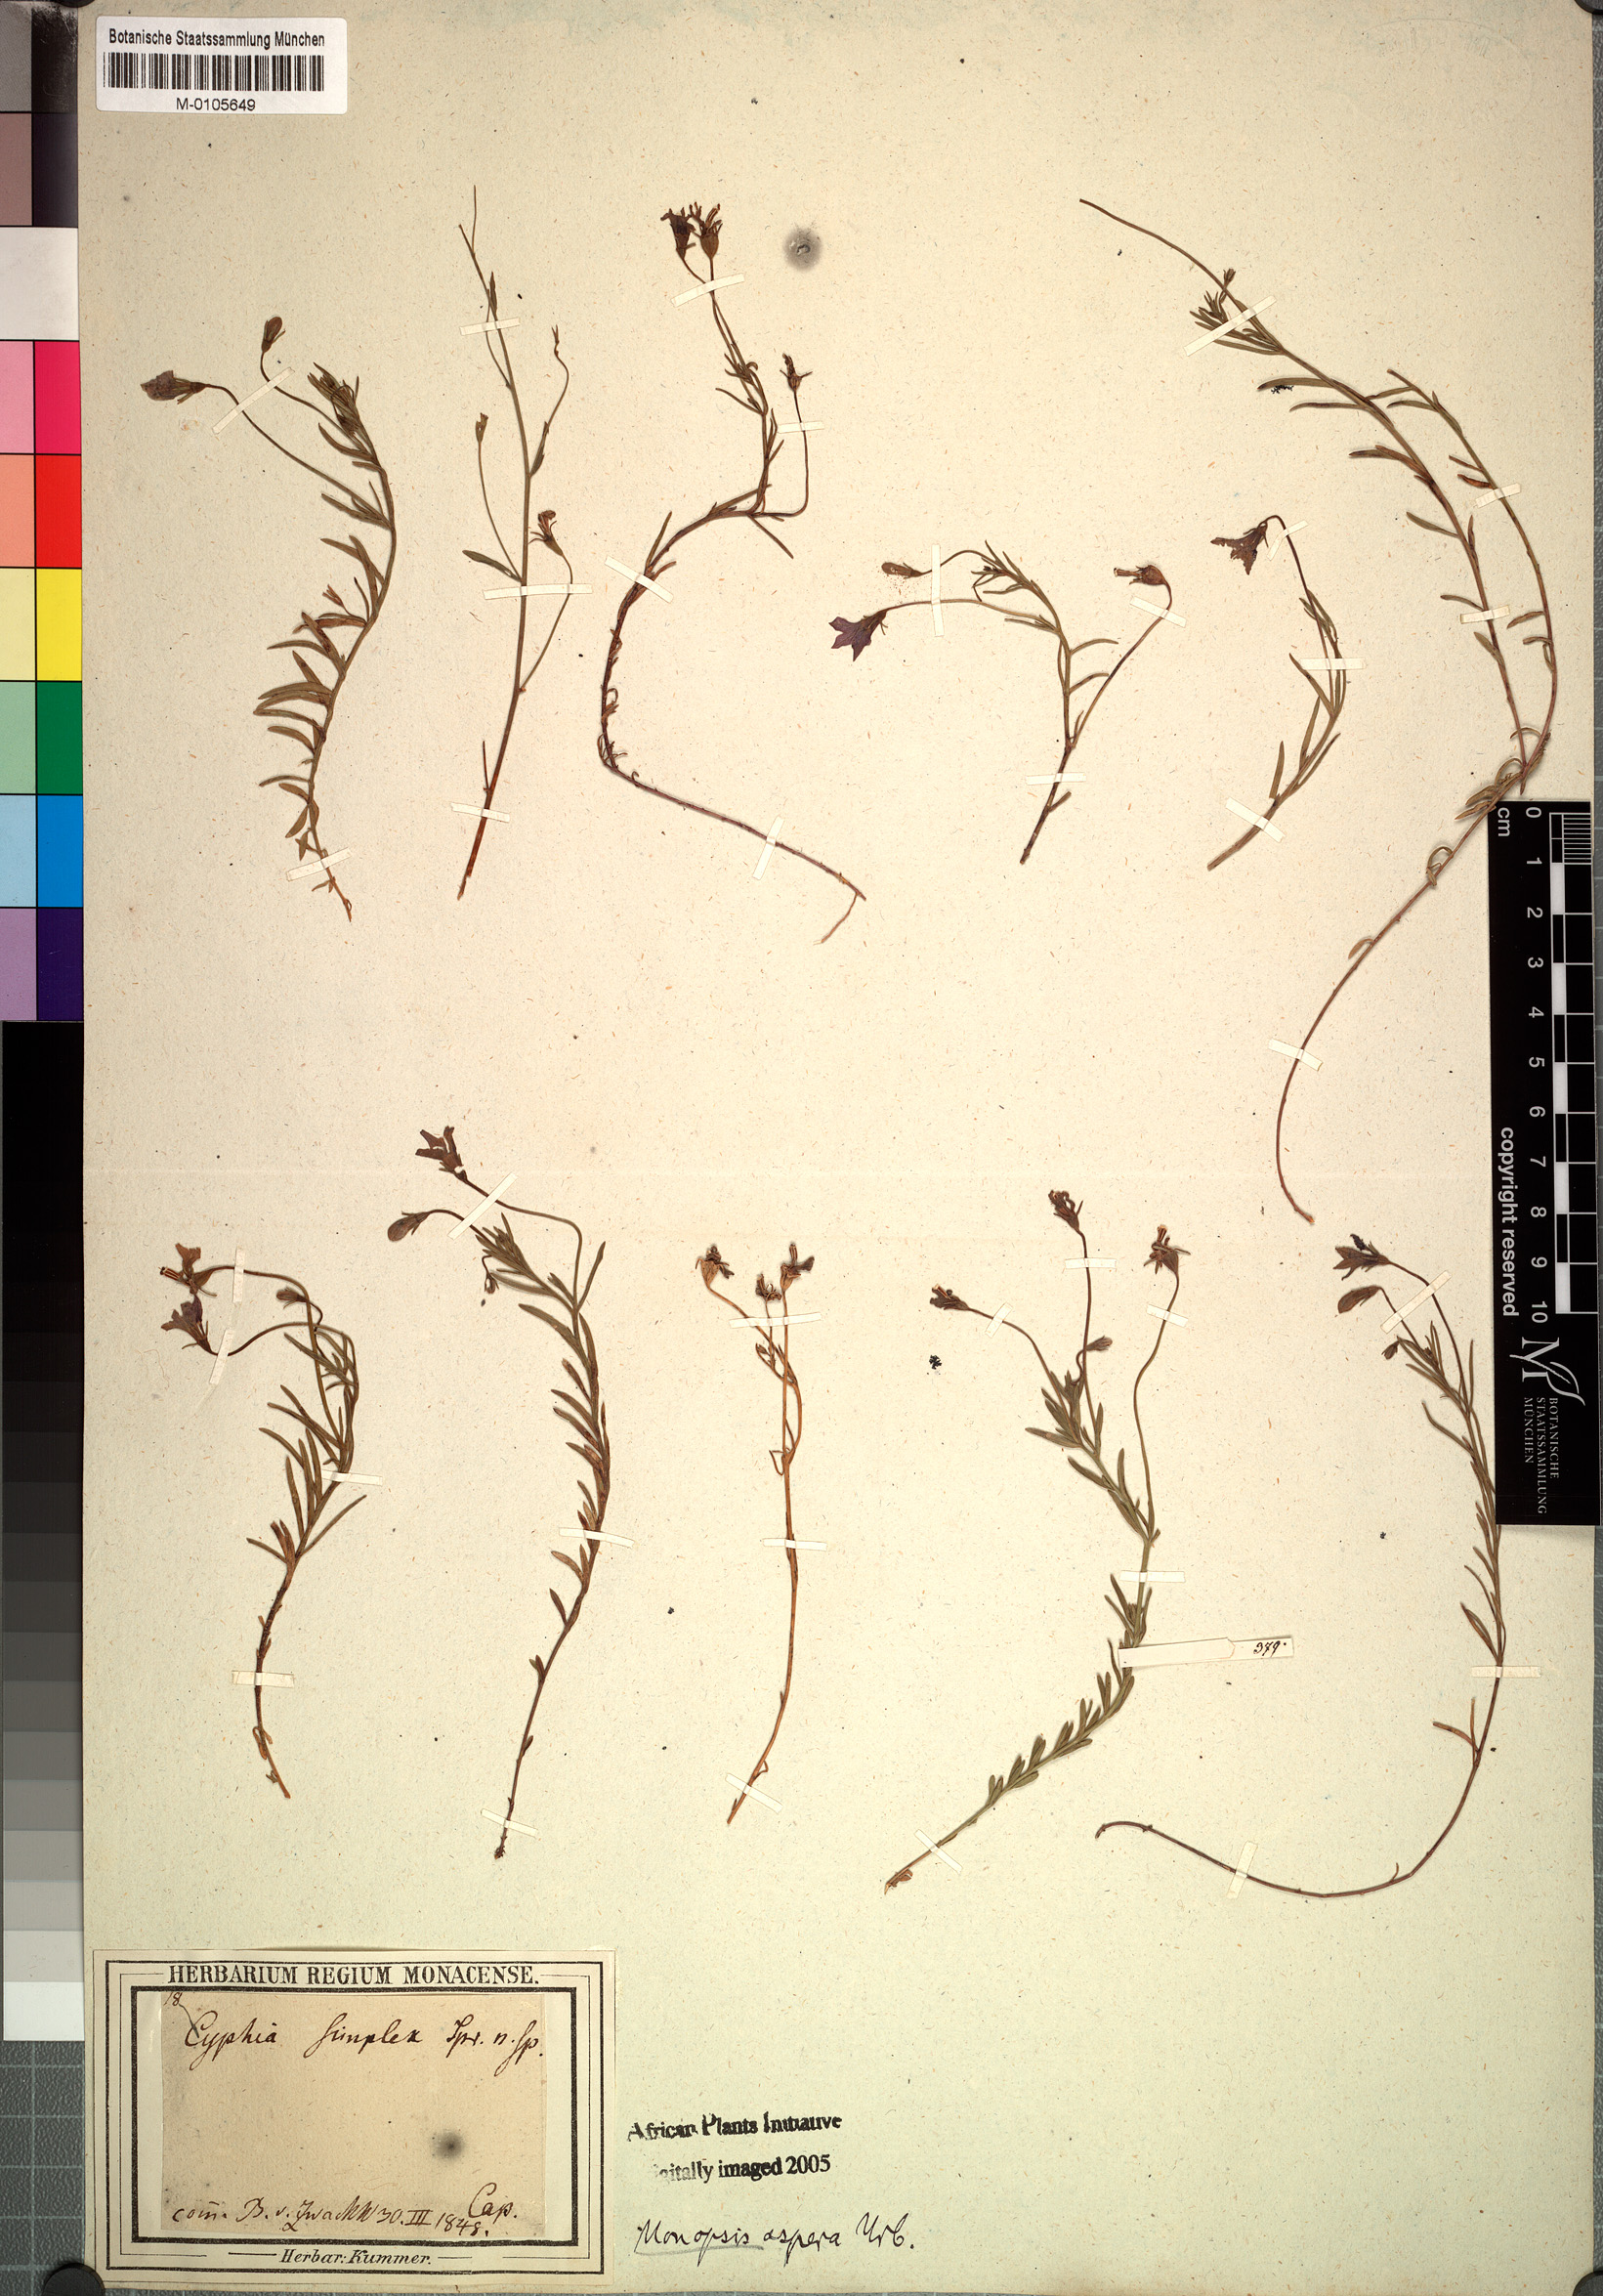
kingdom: Plantae
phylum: Tracheophyta
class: Magnoliopsida
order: Asterales
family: Campanulaceae
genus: Monopsis
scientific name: Monopsis simplex
